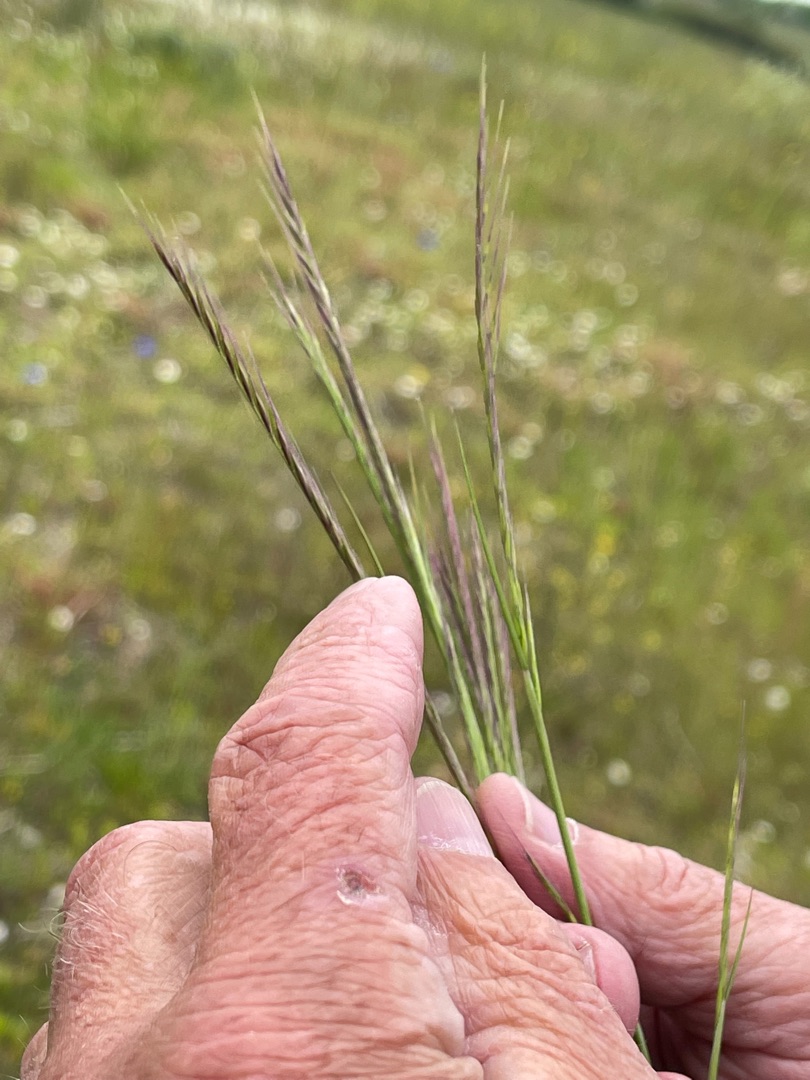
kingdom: Plantae
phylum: Tracheophyta
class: Liliopsida
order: Poales
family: Poaceae
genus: Festuca
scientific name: Festuca myuros
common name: Stor væselhale
